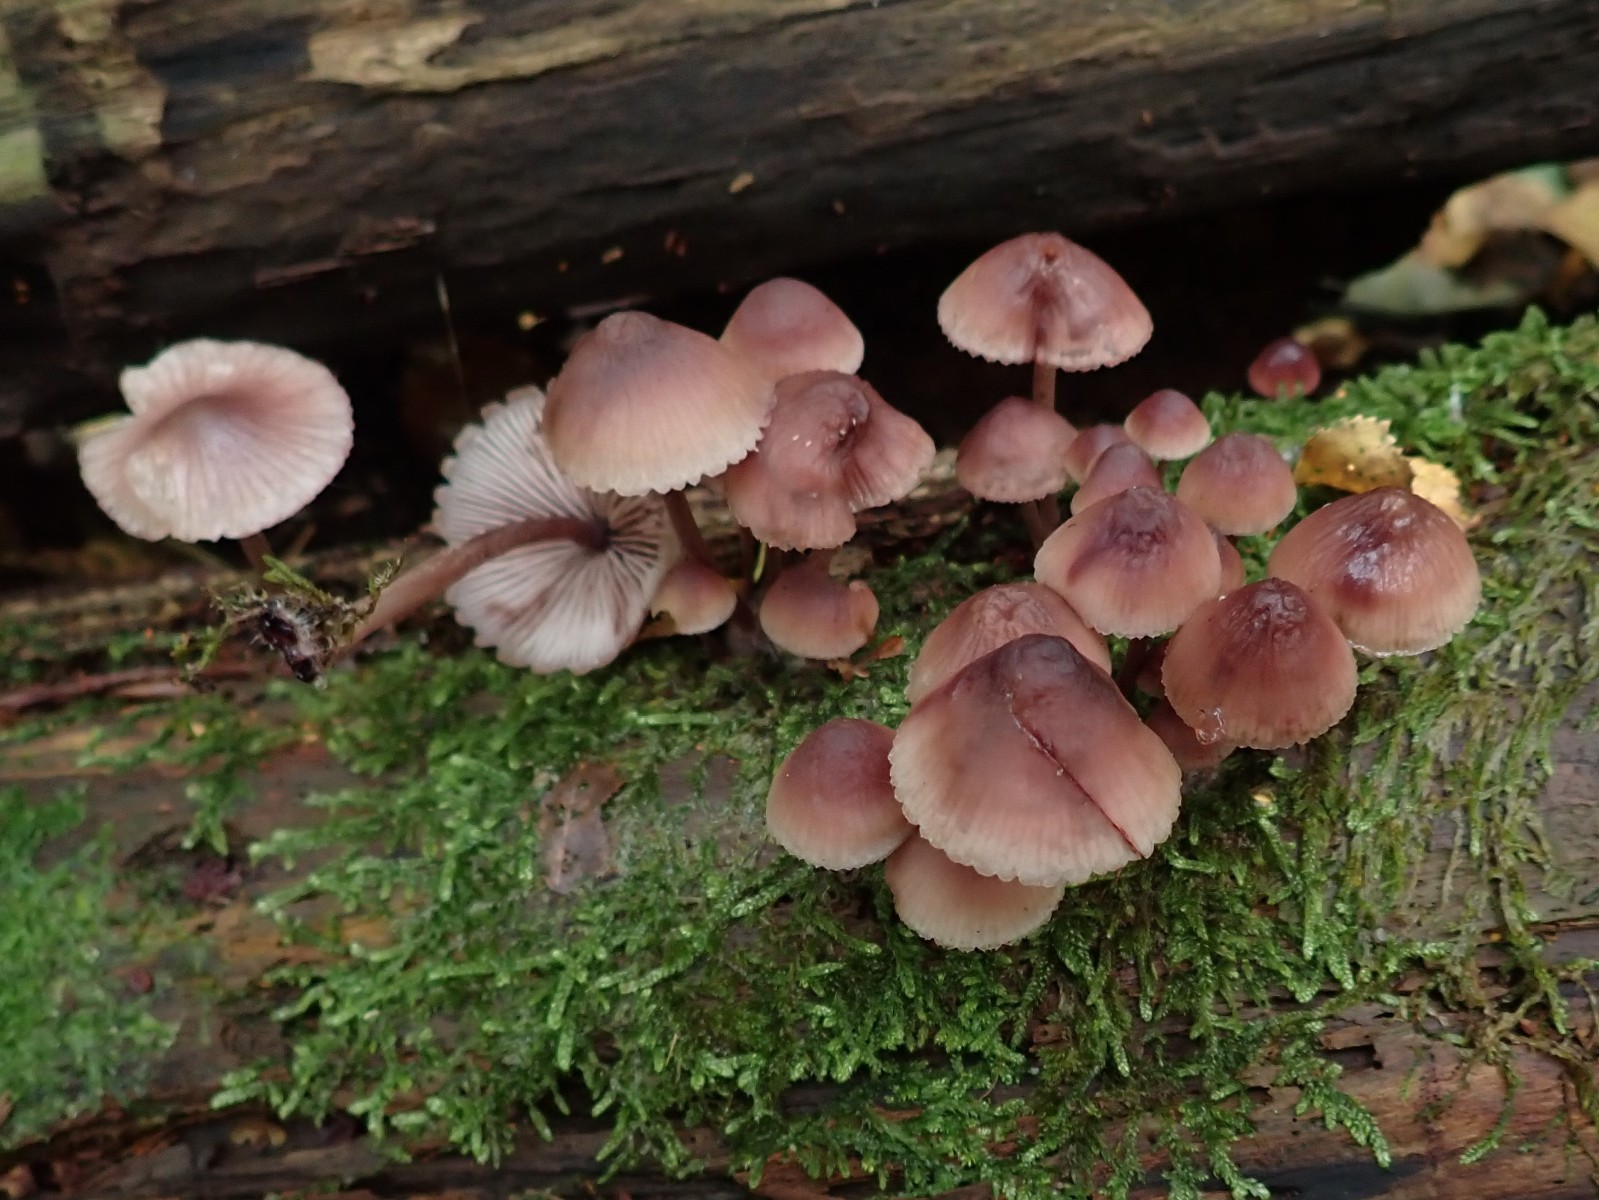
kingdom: Fungi
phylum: Basidiomycota
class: Agaricomycetes
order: Agaricales
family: Mycenaceae
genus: Mycena
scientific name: Mycena haematopus
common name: blødende huesvamp
